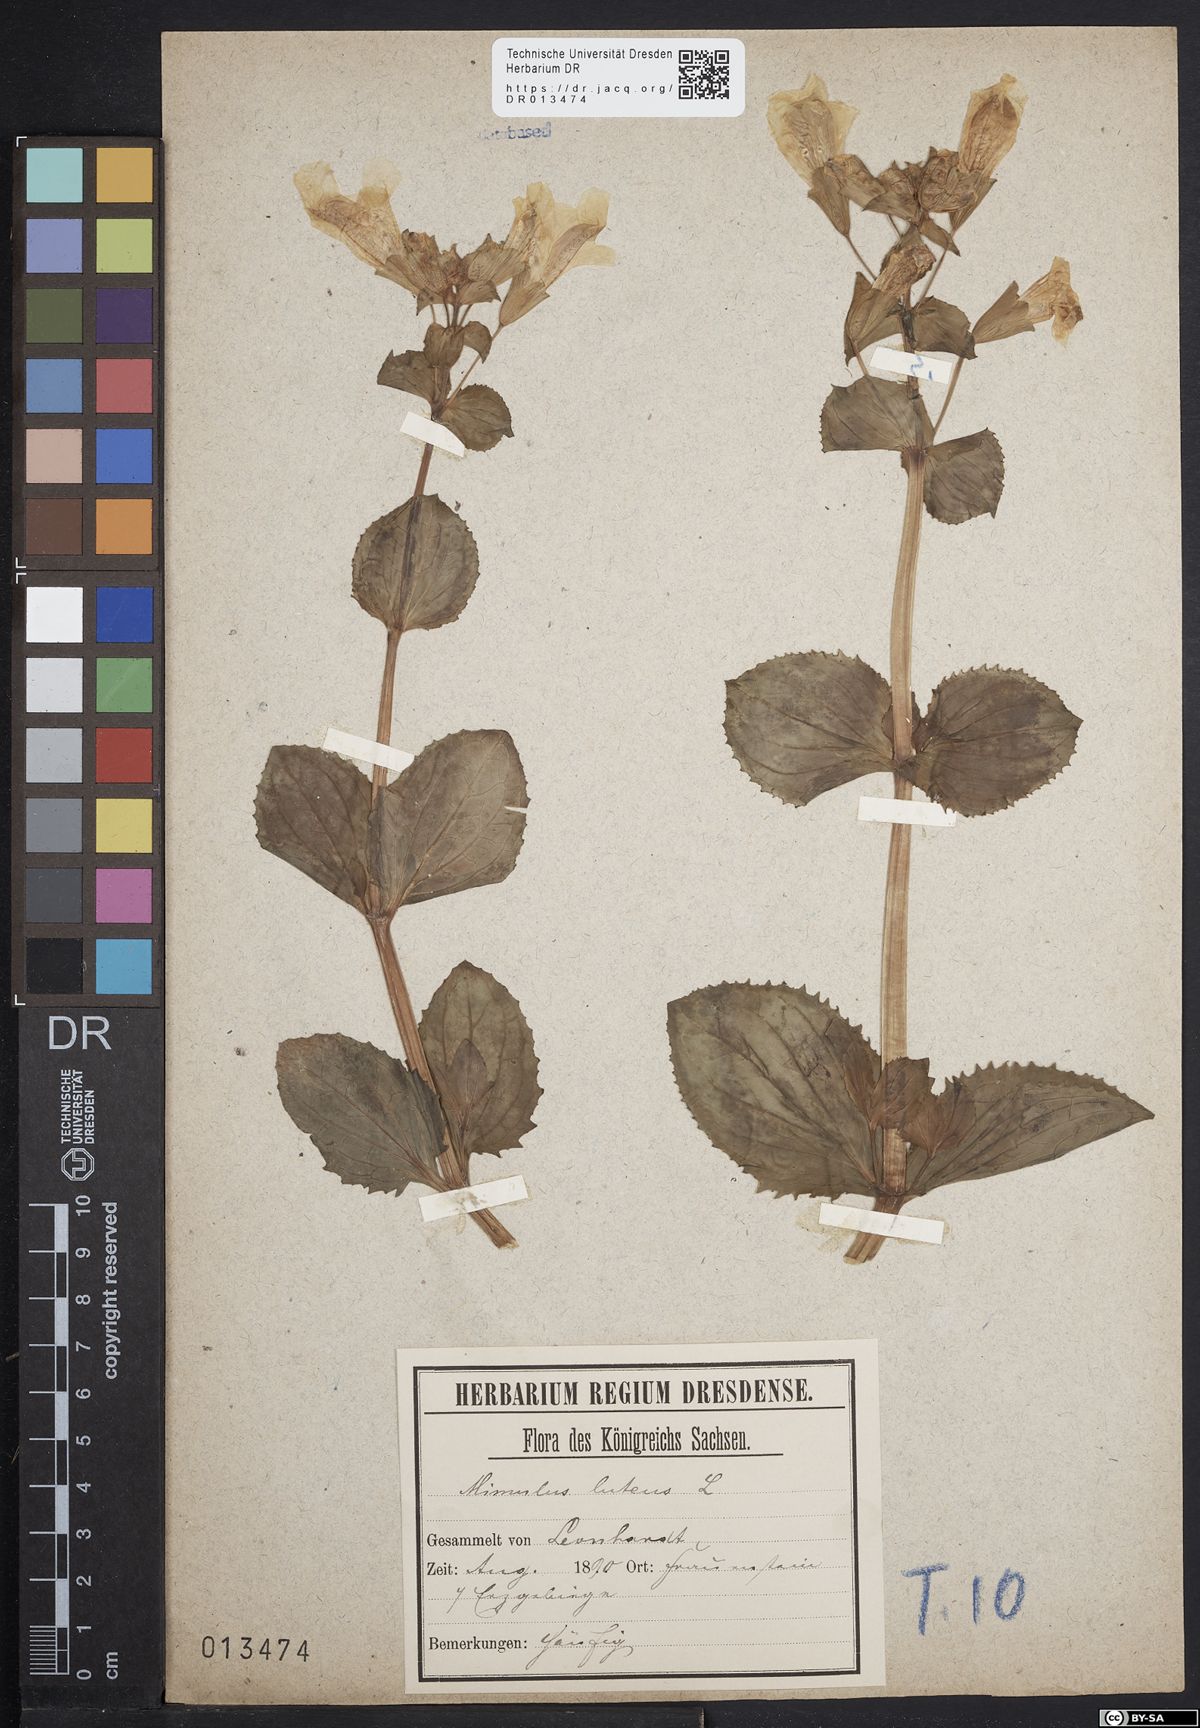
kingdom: Plantae
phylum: Tracheophyta
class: Magnoliopsida
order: Lamiales
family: Phrymaceae
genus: Erythranthe
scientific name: Erythranthe guttata
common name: Monkeyflower
